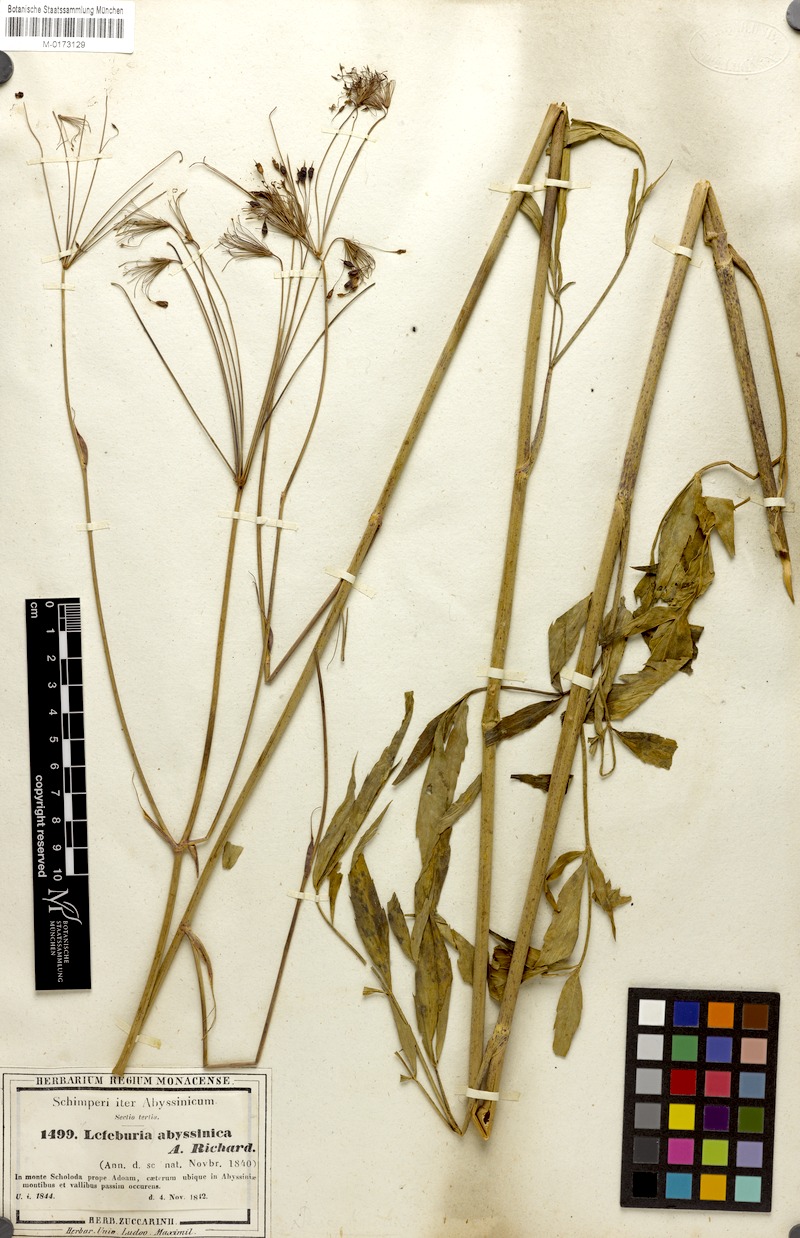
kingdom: Plantae
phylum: Tracheophyta
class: Magnoliopsida
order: Apiales
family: Apiaceae
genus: Lefebvrea
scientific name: Lefebvrea abyssinica
